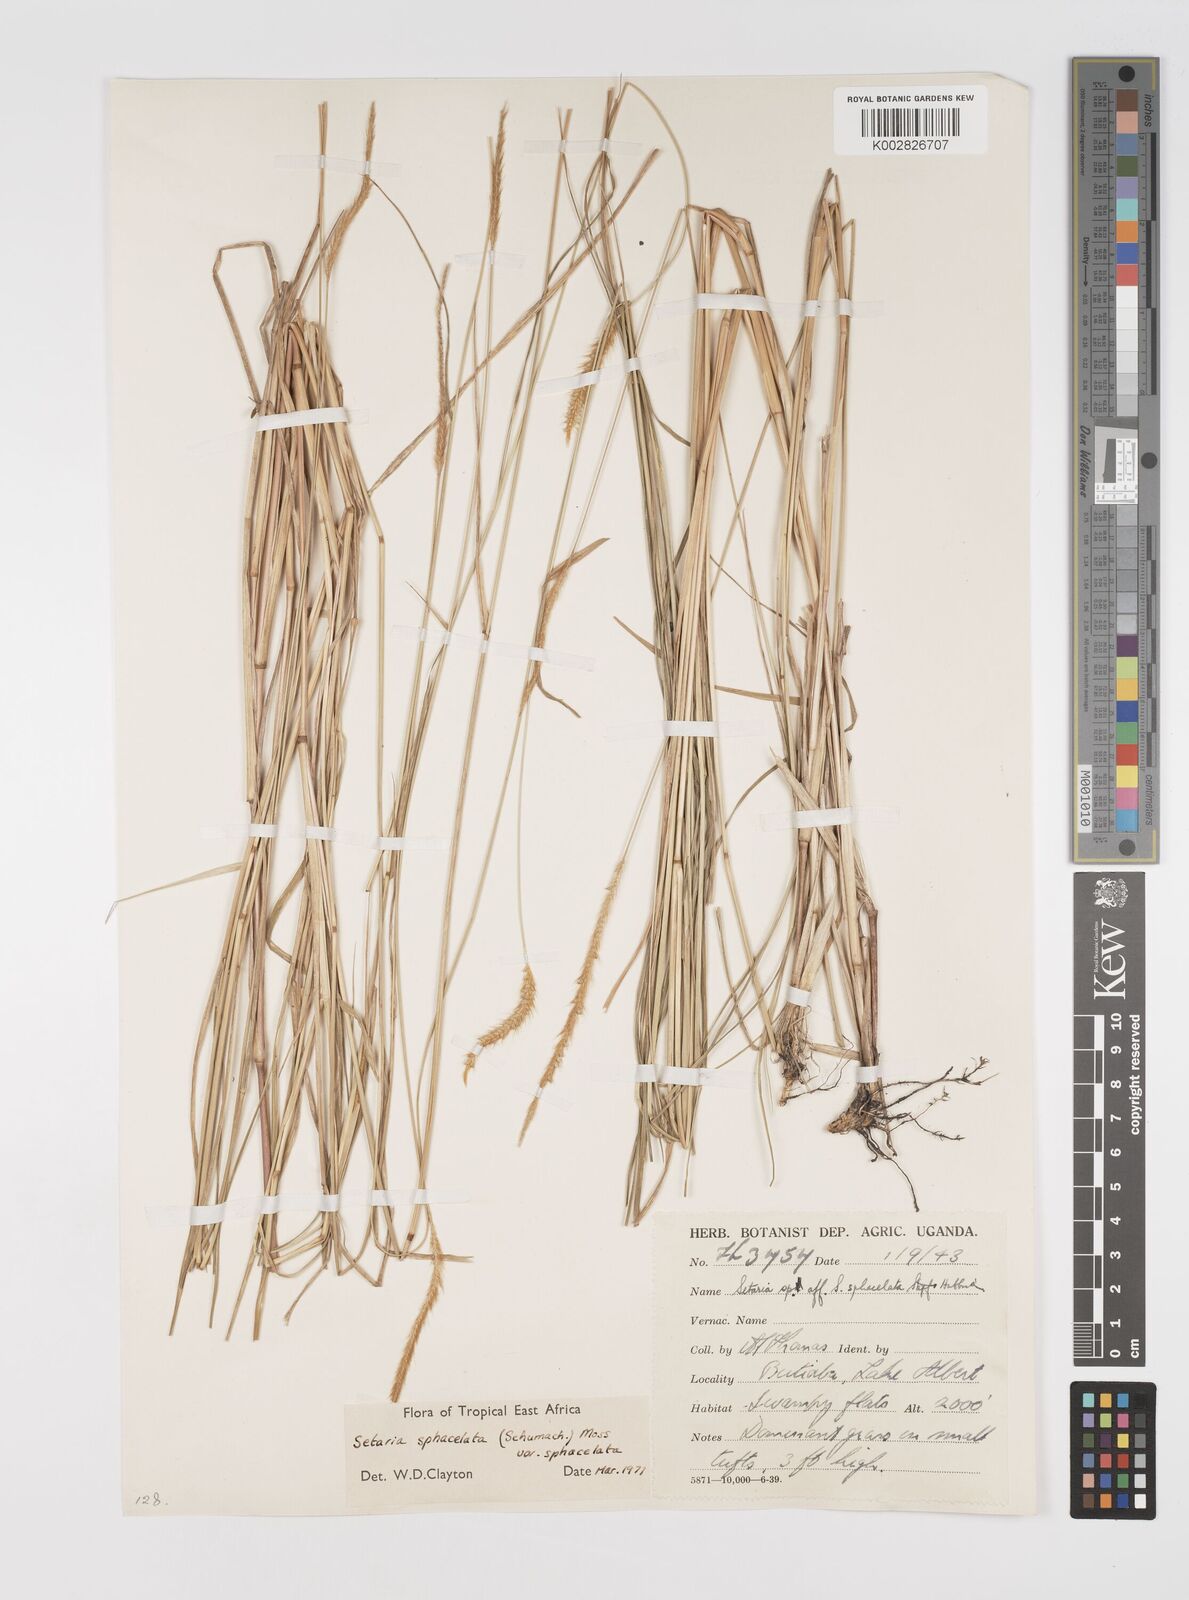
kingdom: Plantae
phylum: Tracheophyta
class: Liliopsida
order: Poales
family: Poaceae
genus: Setaria
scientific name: Setaria sphacelata
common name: African bristlegrass
